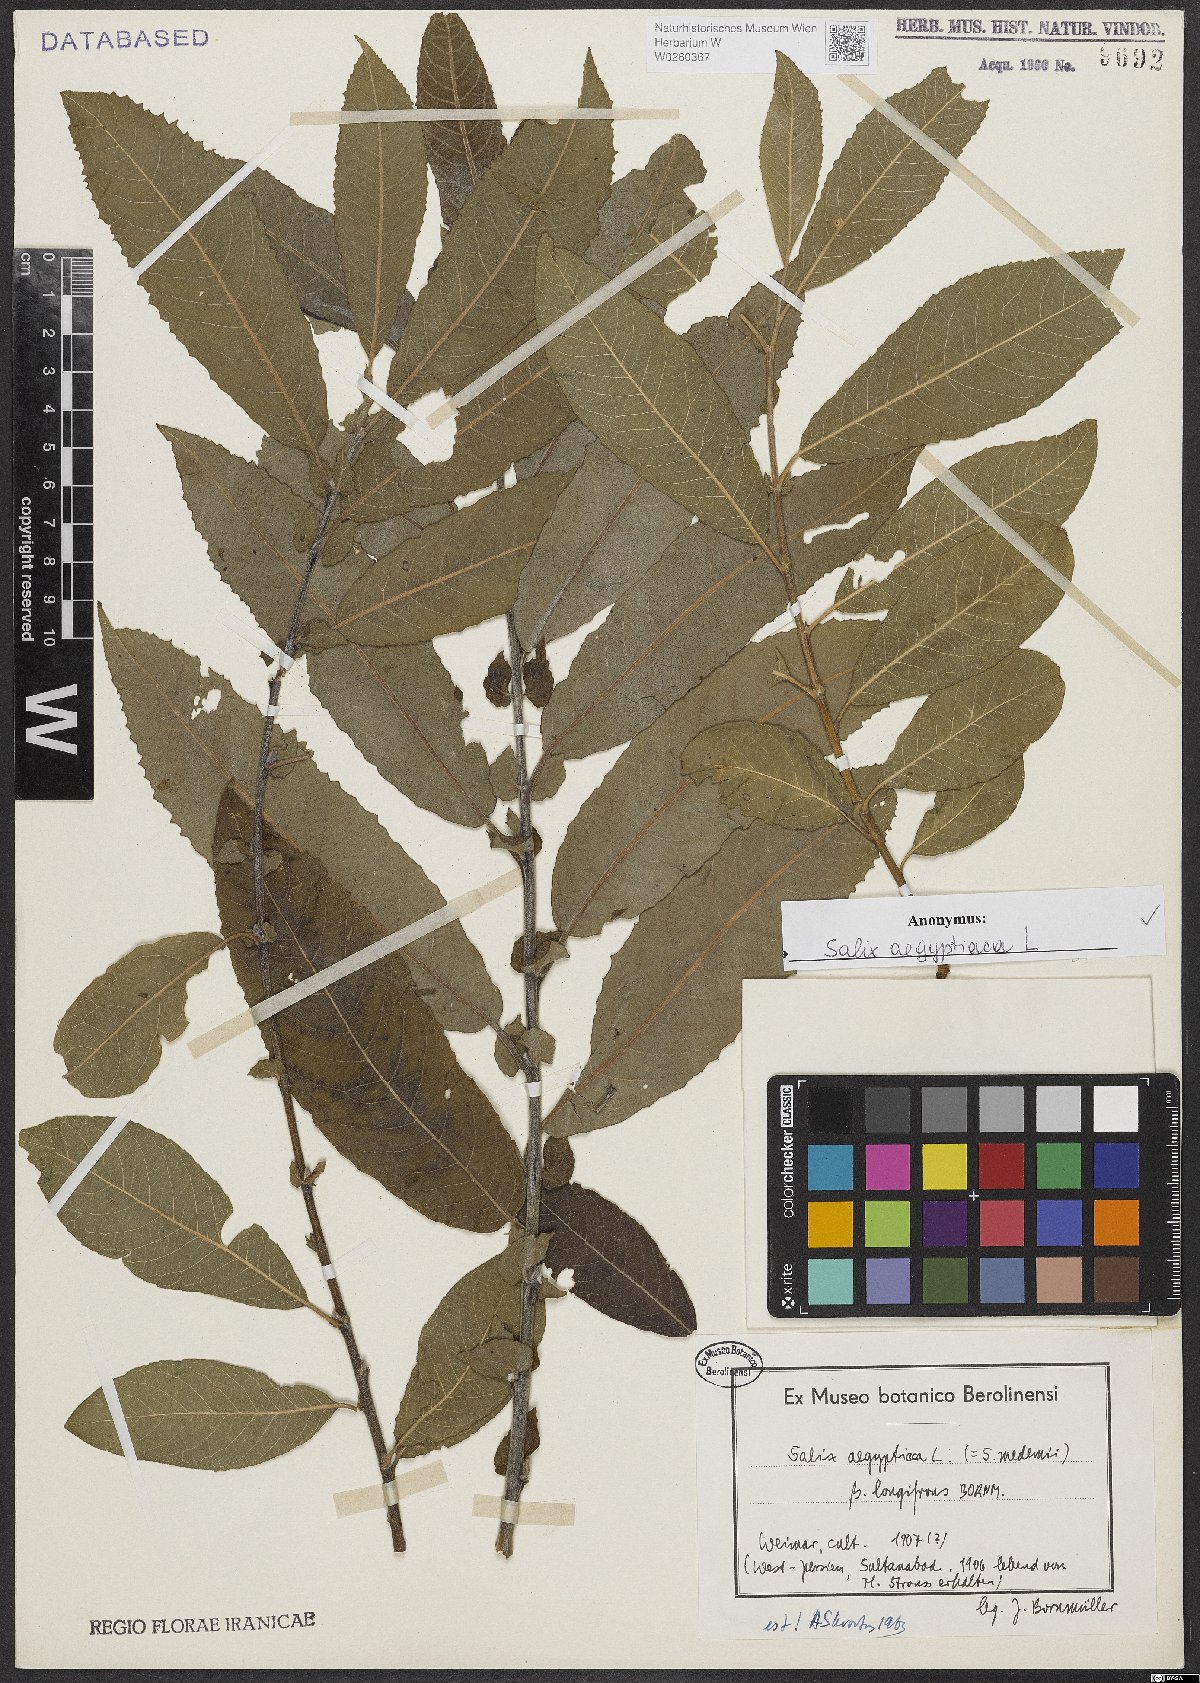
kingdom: Plantae
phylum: Tracheophyta
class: Magnoliopsida
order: Malpighiales
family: Salicaceae
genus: Salix
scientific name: Salix aegyptiaca
